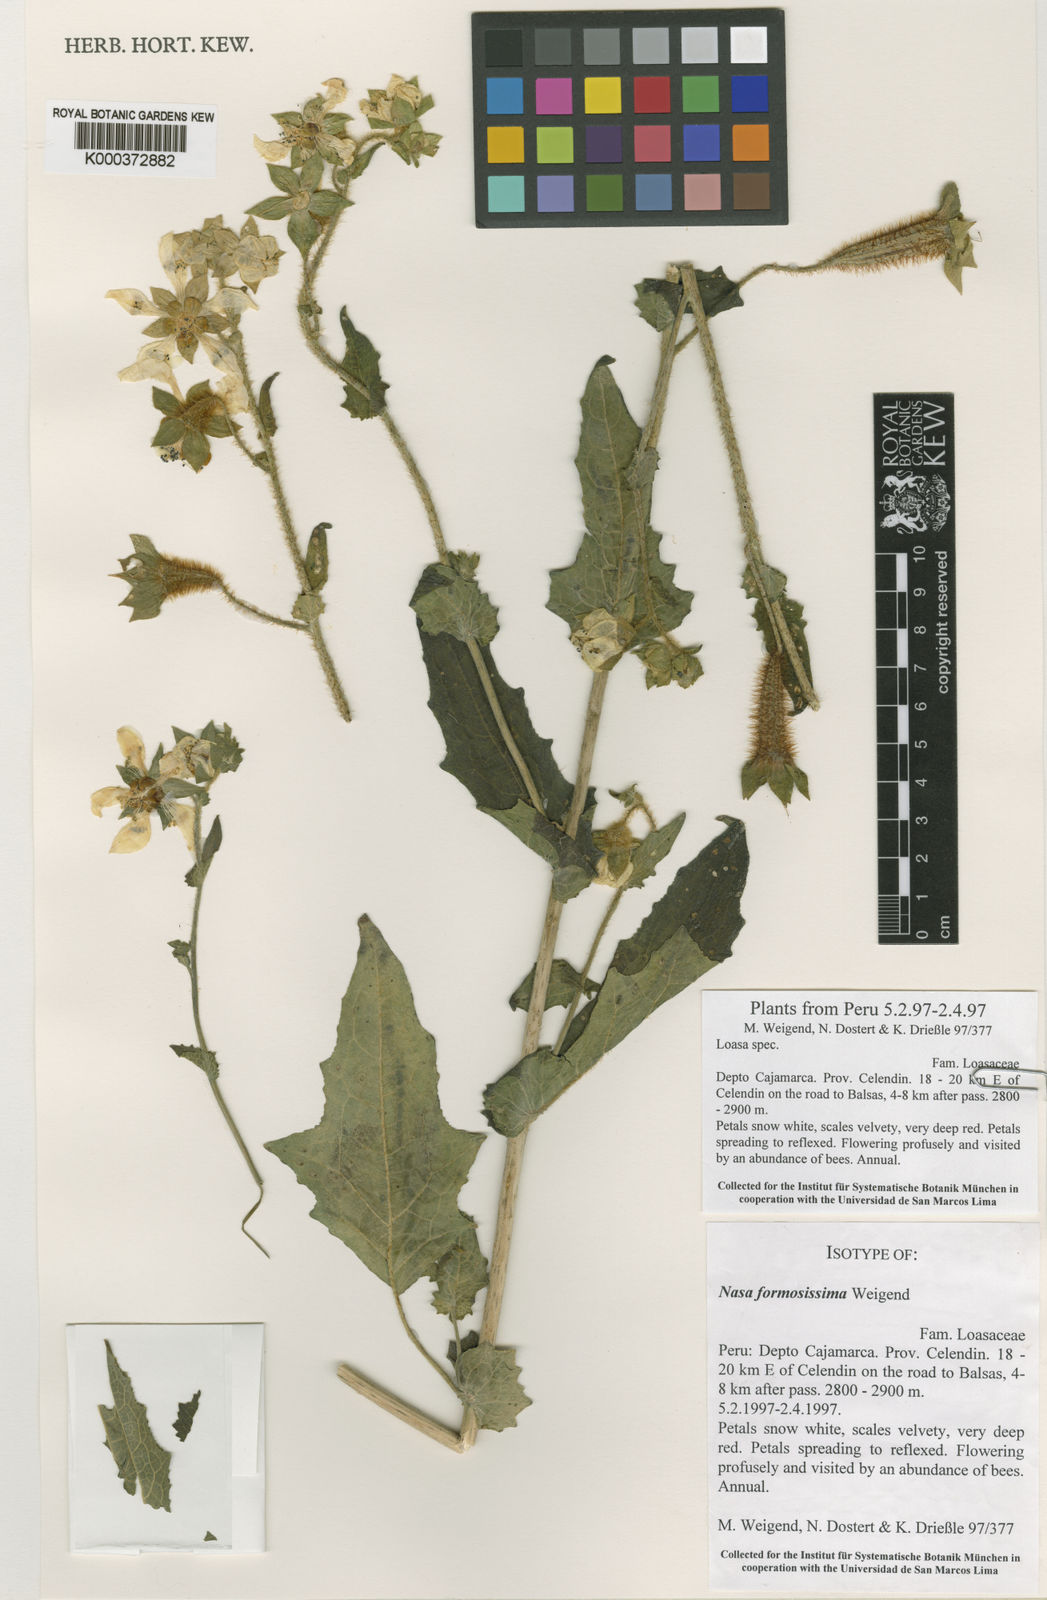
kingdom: Plantae
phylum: Tracheophyta
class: Magnoliopsida
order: Cornales
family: Loasaceae
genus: Nasa
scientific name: Nasa formosissima
